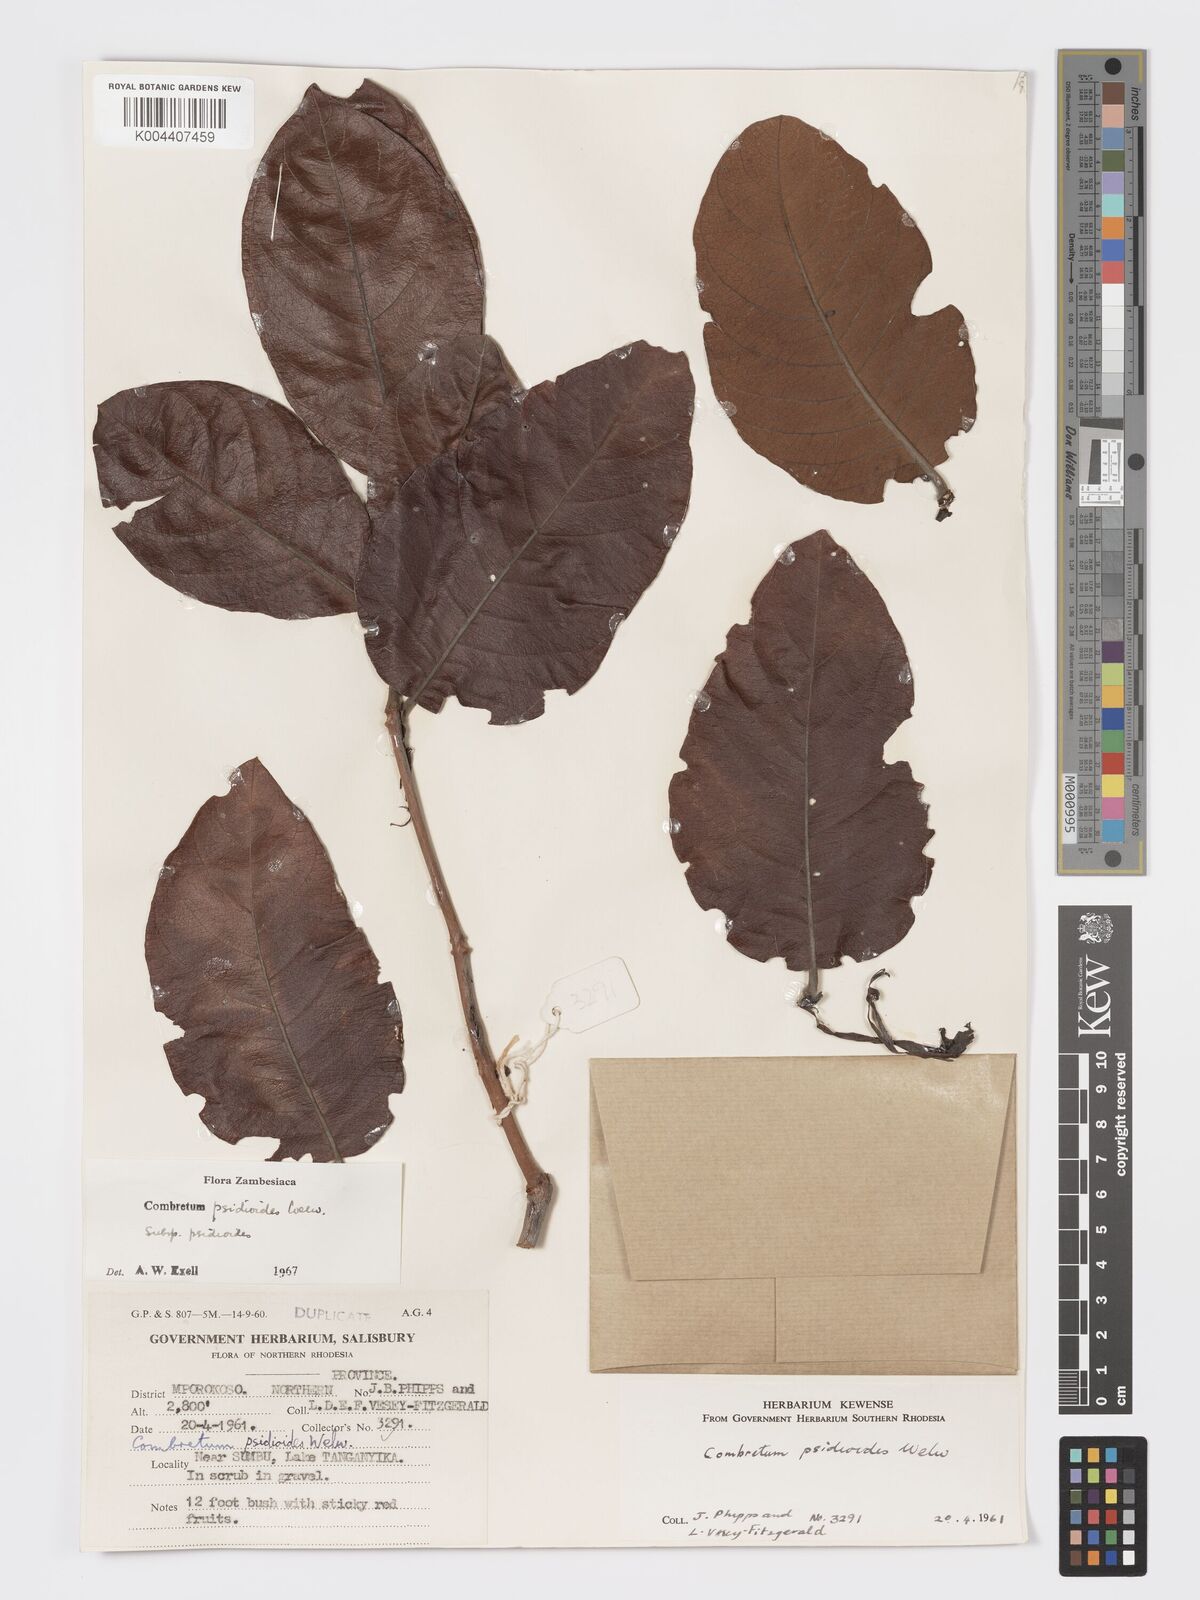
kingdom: Plantae
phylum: Tracheophyta
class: Magnoliopsida
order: Myrtales
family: Combretaceae
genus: Combretum
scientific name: Combretum psidioides
